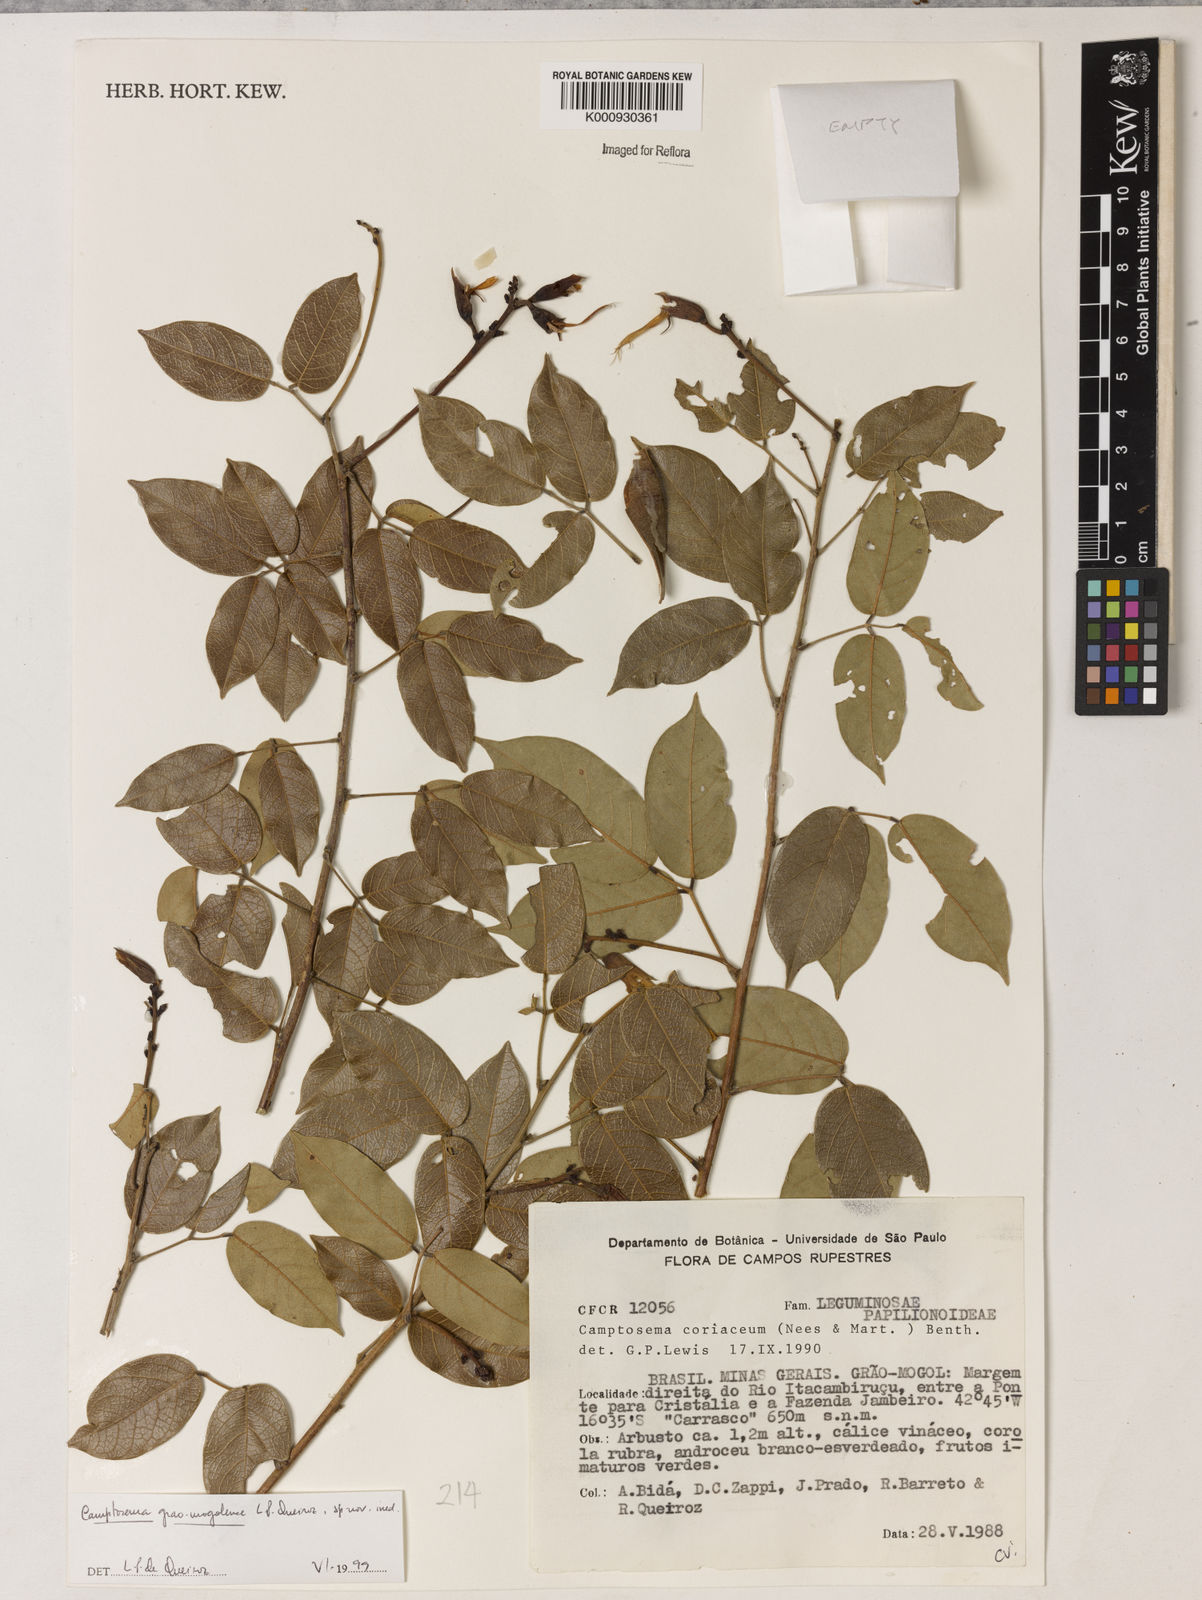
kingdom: Plantae
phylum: Tracheophyta
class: Magnoliopsida
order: Fabales
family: Fabaceae
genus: Camptosema
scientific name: Camptosema
